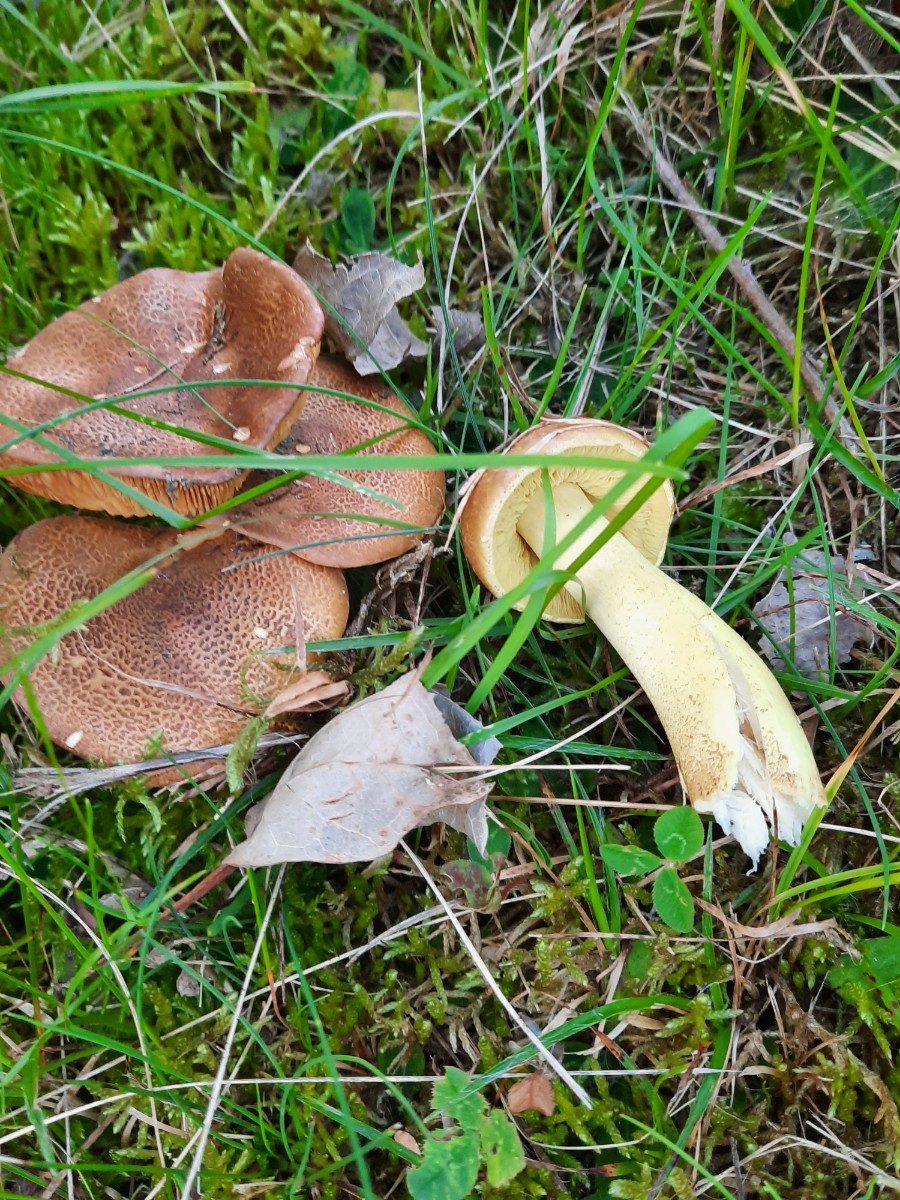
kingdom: Fungi
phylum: Basidiomycota
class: Agaricomycetes
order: Agaricales
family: Tricholomataceae
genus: Tricholoma
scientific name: Tricholoma frondosae
